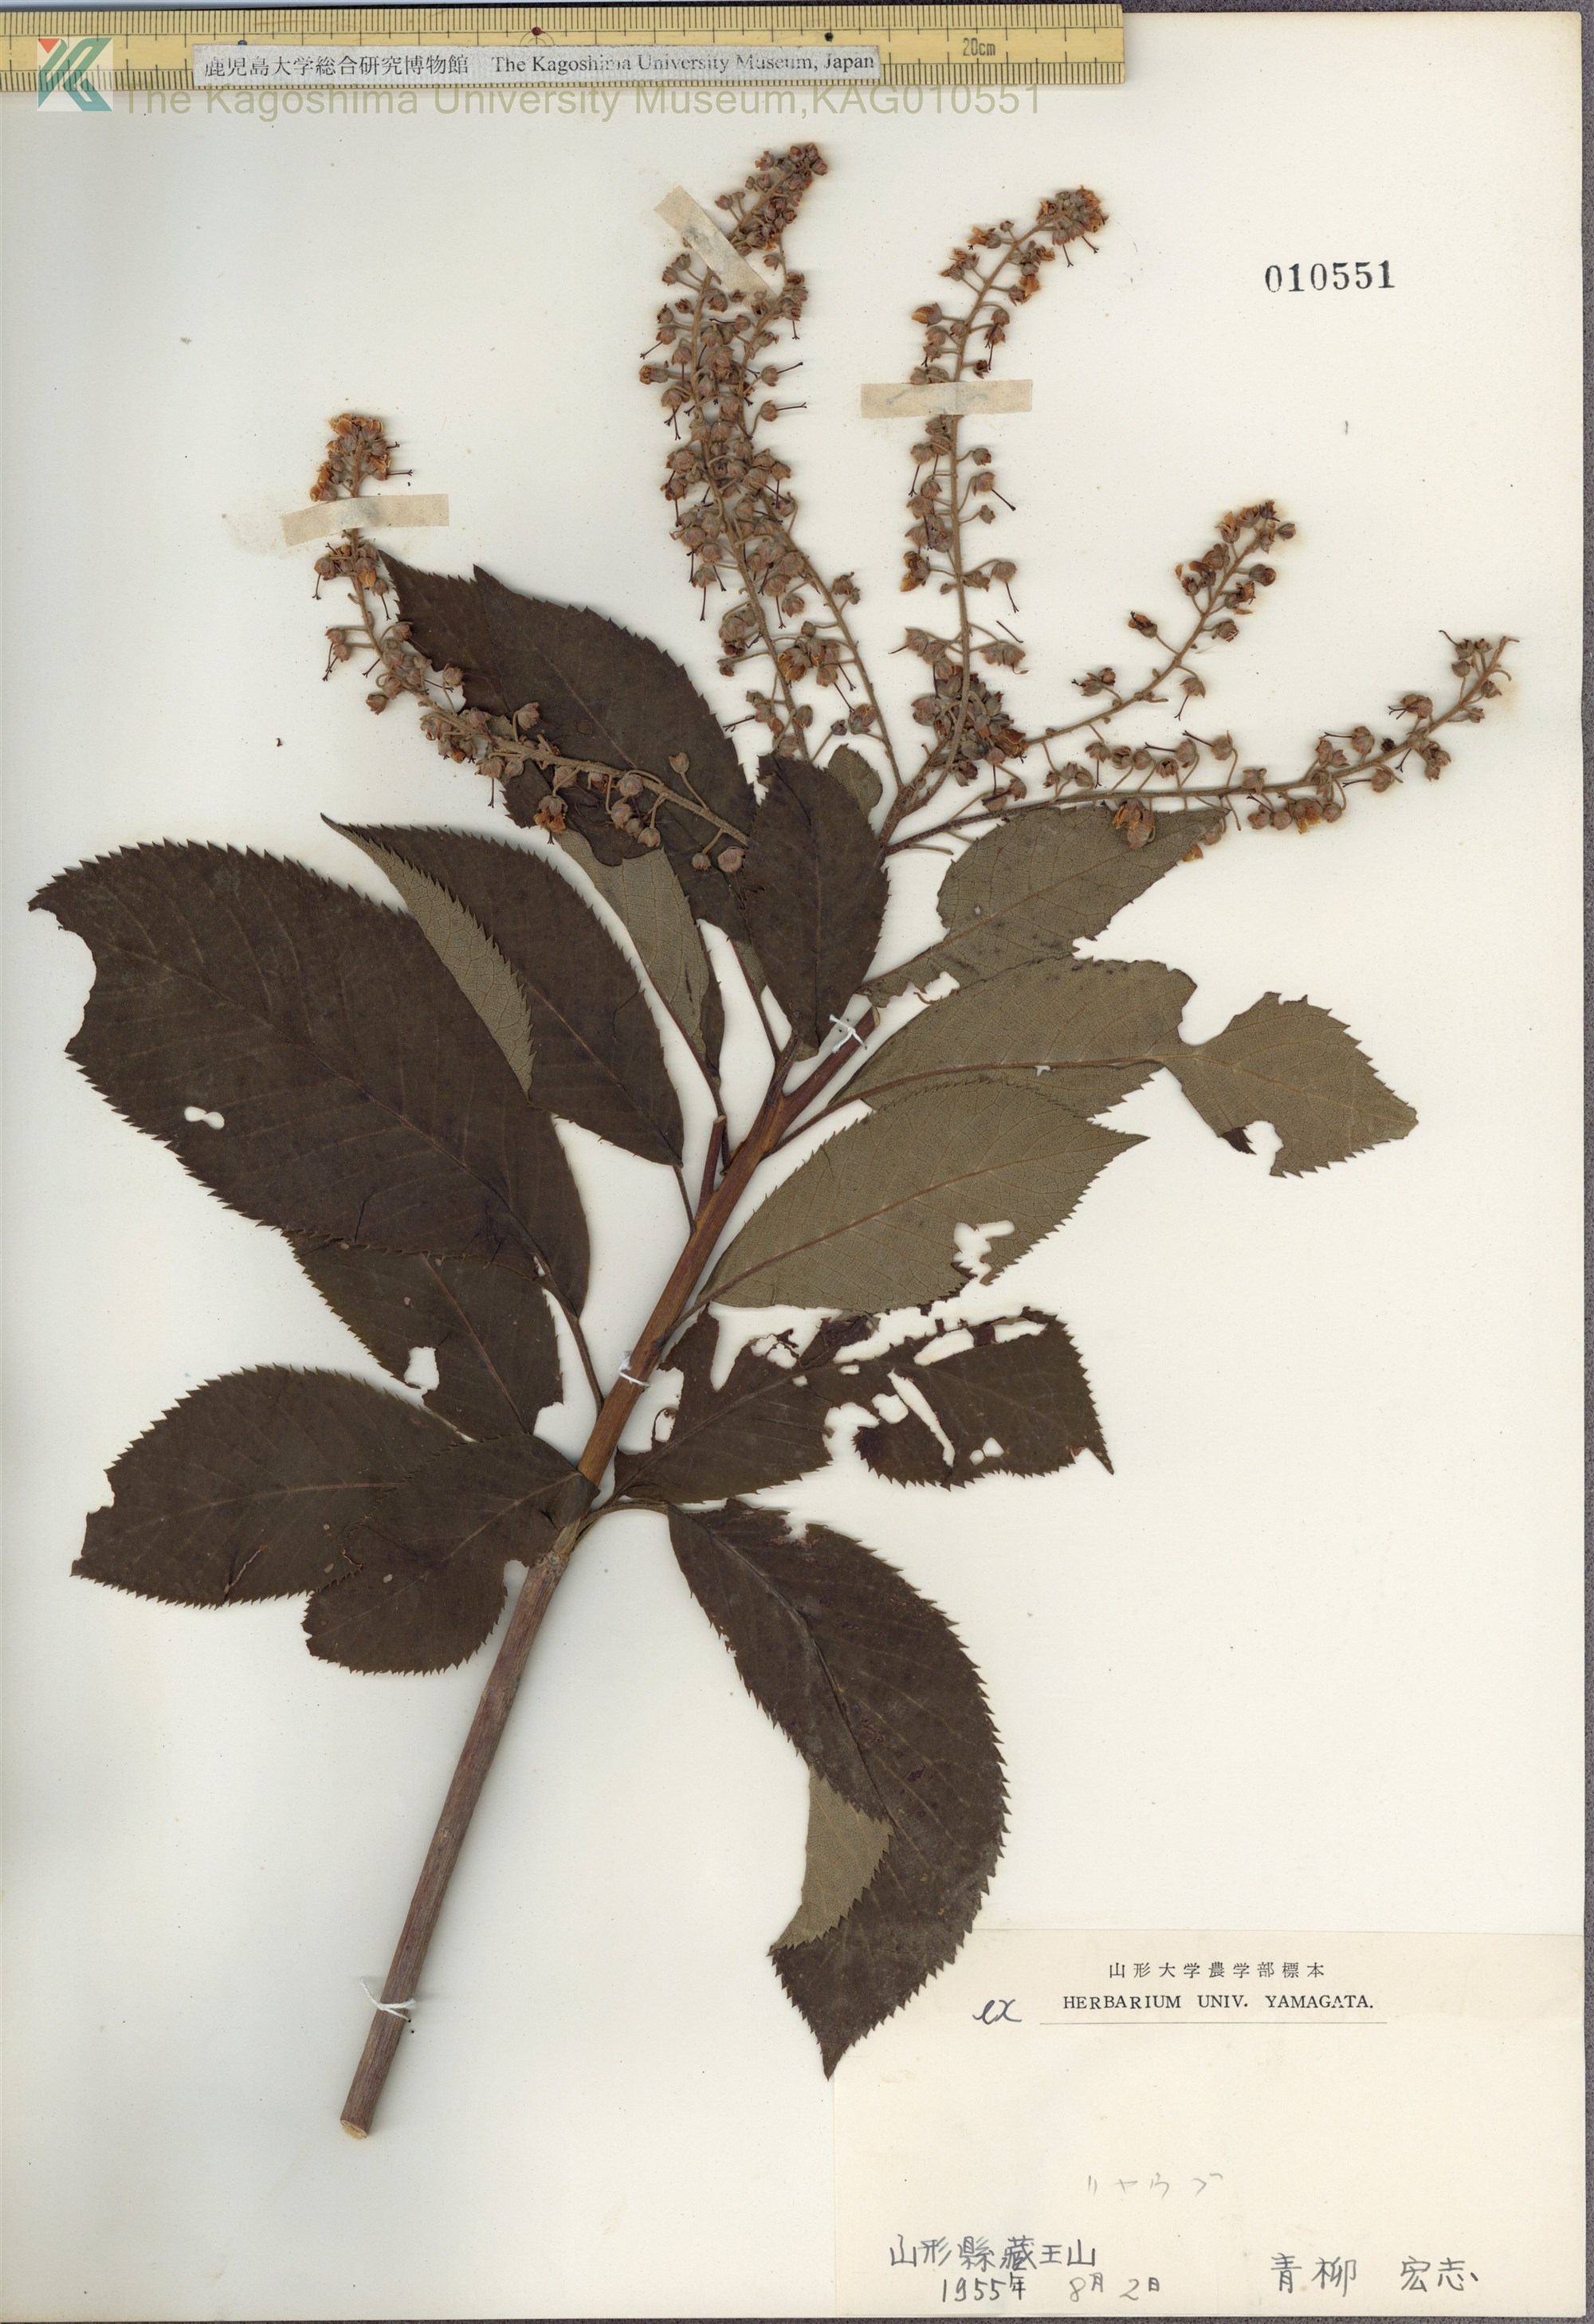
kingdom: Plantae
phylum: Tracheophyta
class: Magnoliopsida
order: Ericales
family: Clethraceae
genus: Clethra
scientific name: Clethra barbinervis
